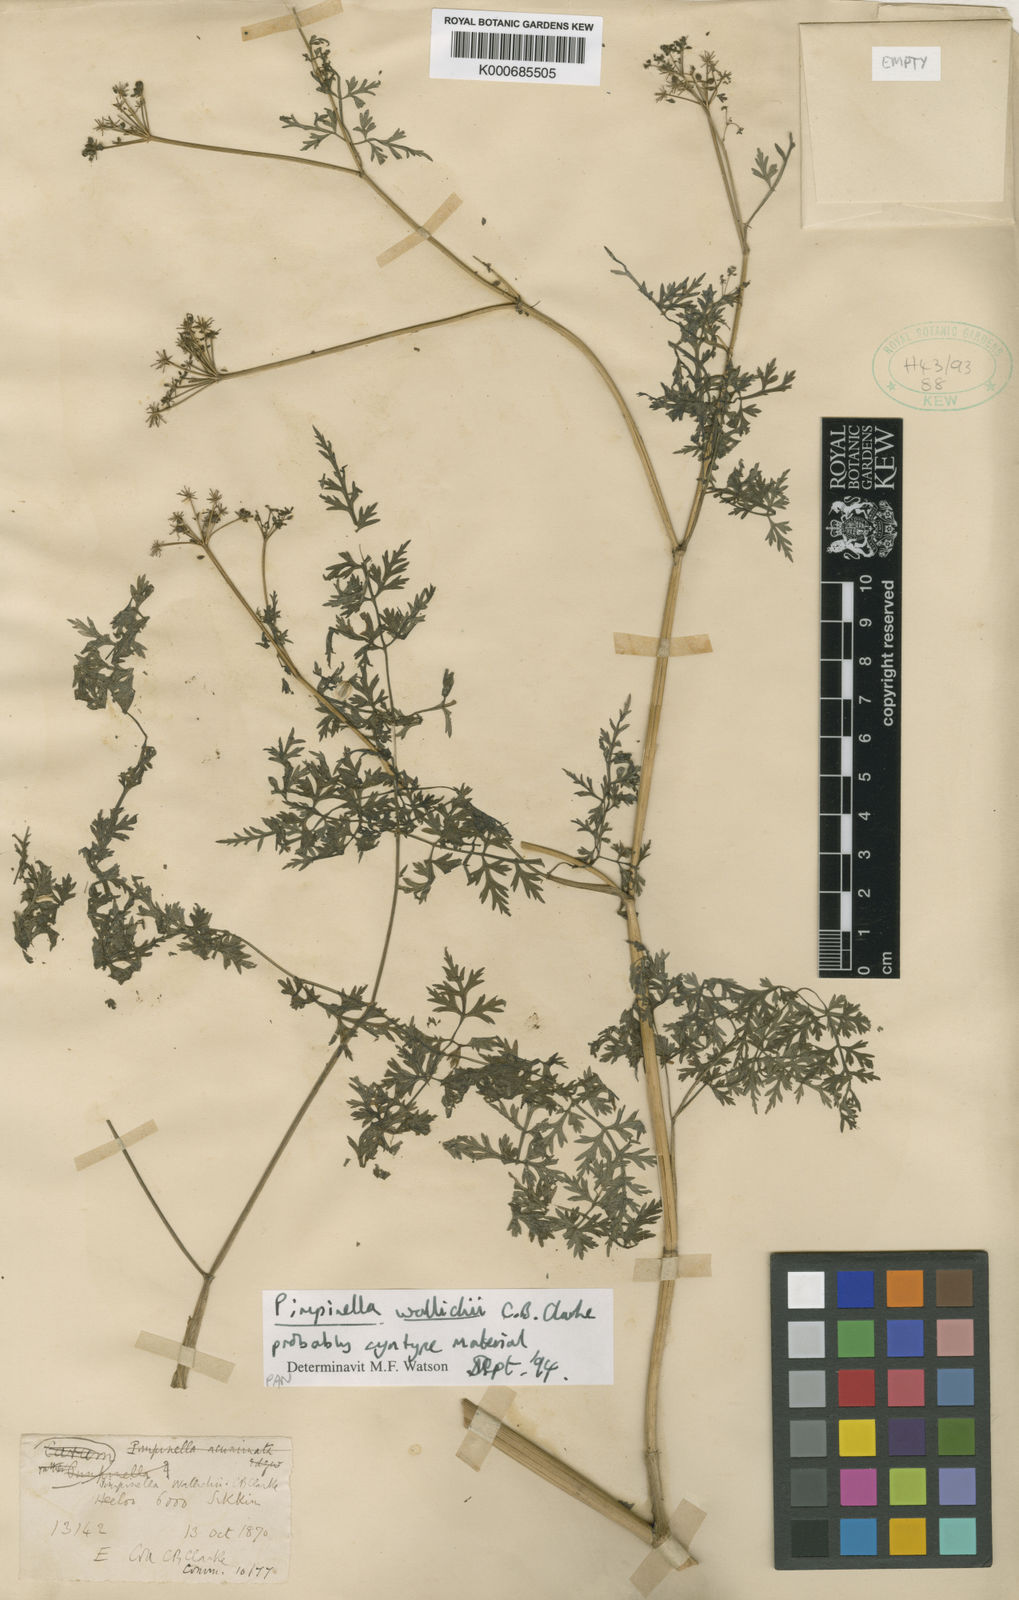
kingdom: Plantae
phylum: Tracheophyta
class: Magnoliopsida
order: Apiales
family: Apiaceae
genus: Pimpinella
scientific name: Pimpinella wallichii
